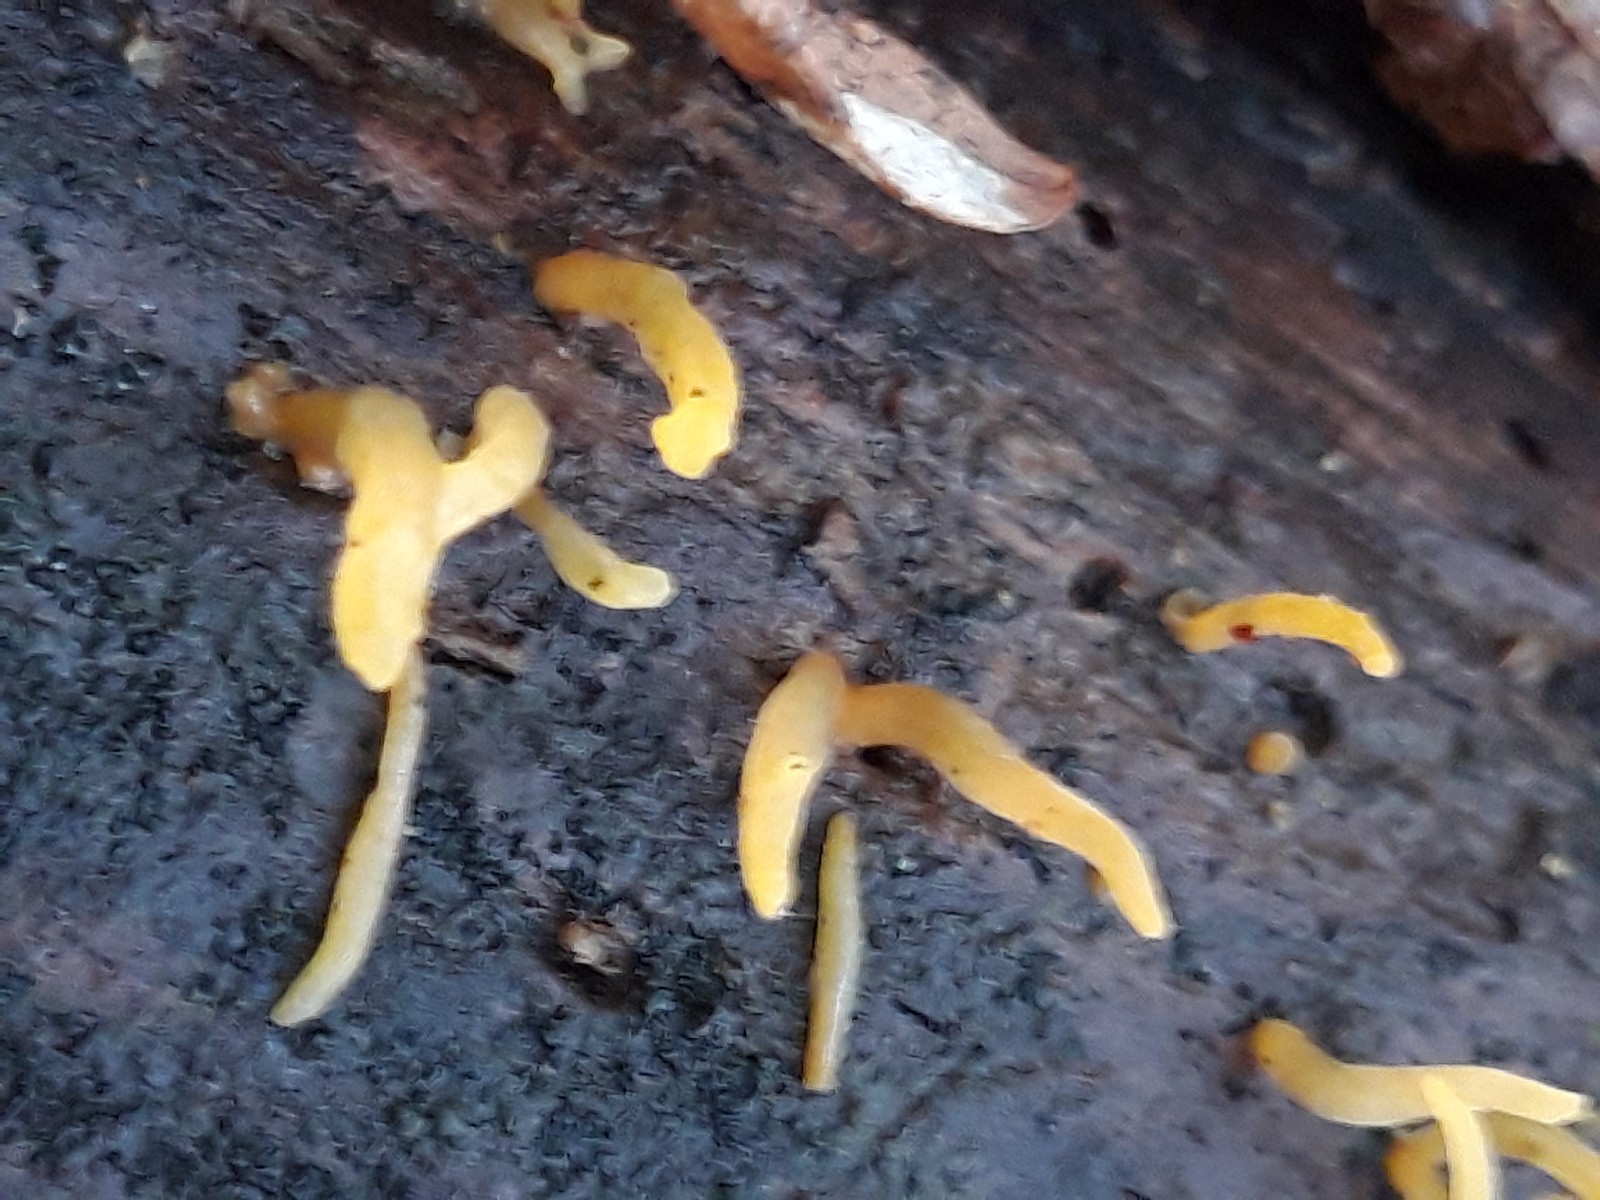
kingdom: Fungi
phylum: Basidiomycota
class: Dacrymycetes
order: Dacrymycetales
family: Dacrymycetaceae
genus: Calocera
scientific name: Calocera cornea
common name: liden guldgaffel
